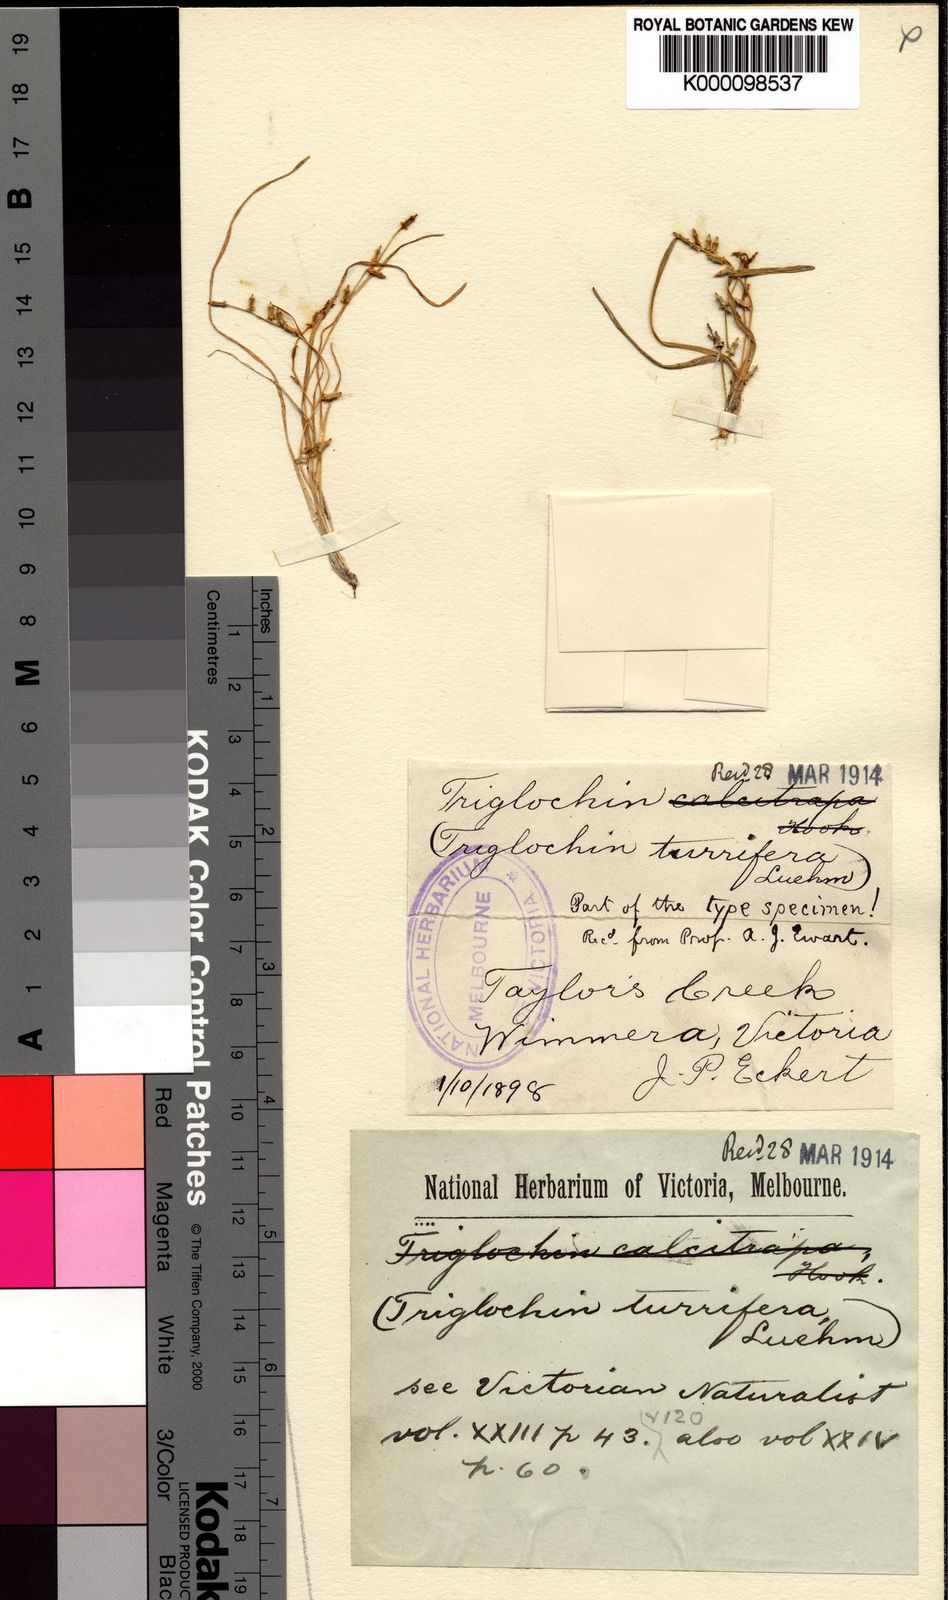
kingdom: Plantae
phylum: Tracheophyta
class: Liliopsida
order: Alismatales
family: Juncaginaceae
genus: Triglochin
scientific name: Triglochin
